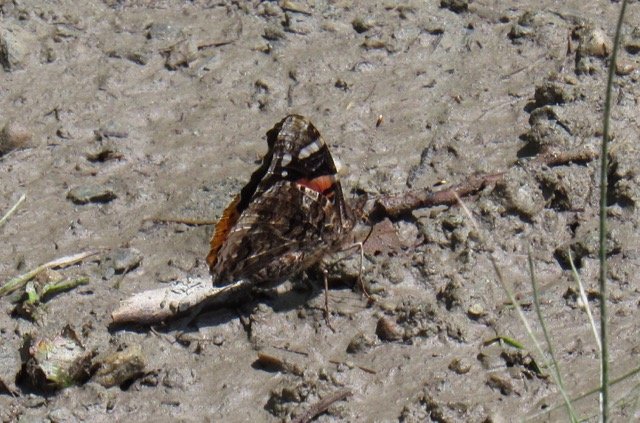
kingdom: Animalia
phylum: Arthropoda
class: Insecta
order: Lepidoptera
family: Nymphalidae
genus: Vanessa
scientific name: Vanessa atalanta
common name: Red Admiral
